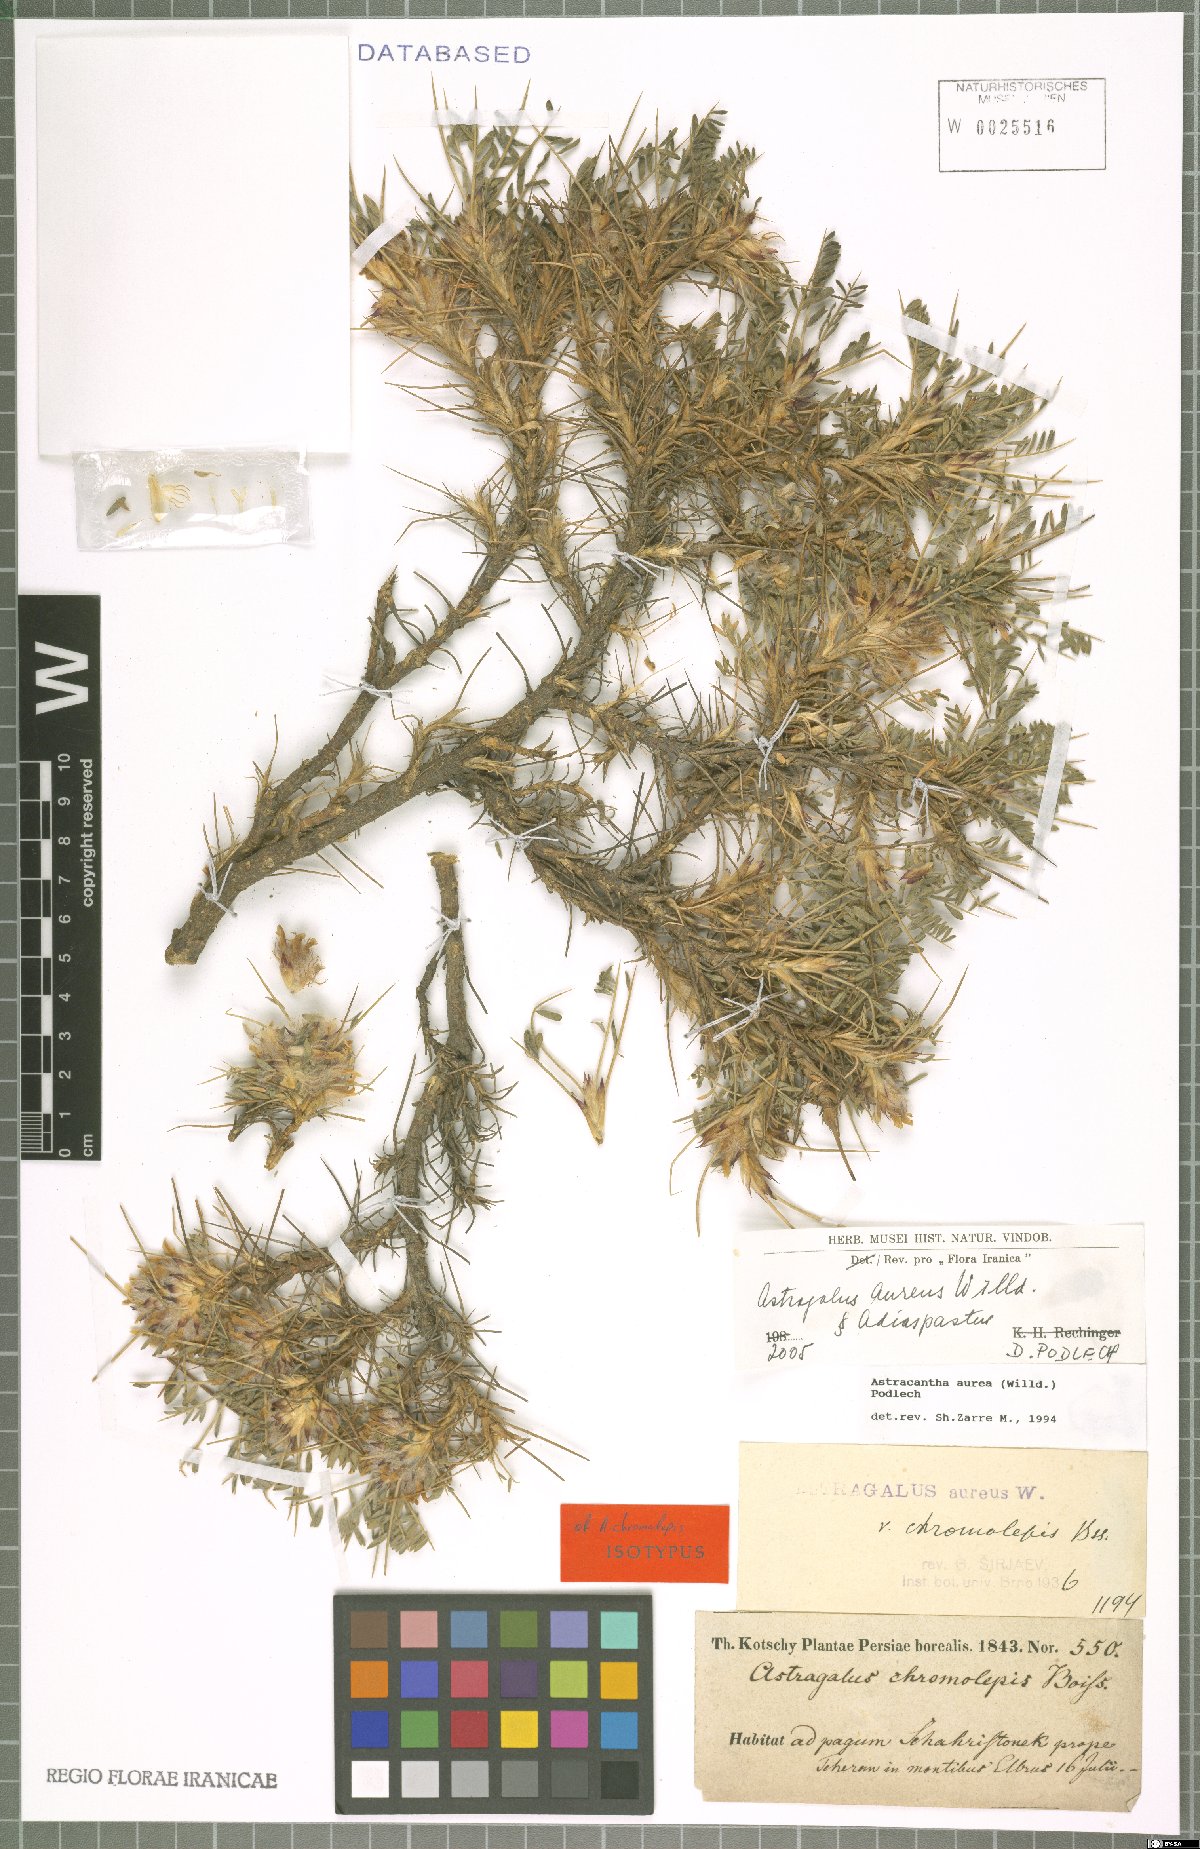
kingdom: Plantae
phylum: Tracheophyta
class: Magnoliopsida
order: Fabales
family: Fabaceae
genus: Astragalus
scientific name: Astragalus aureus
